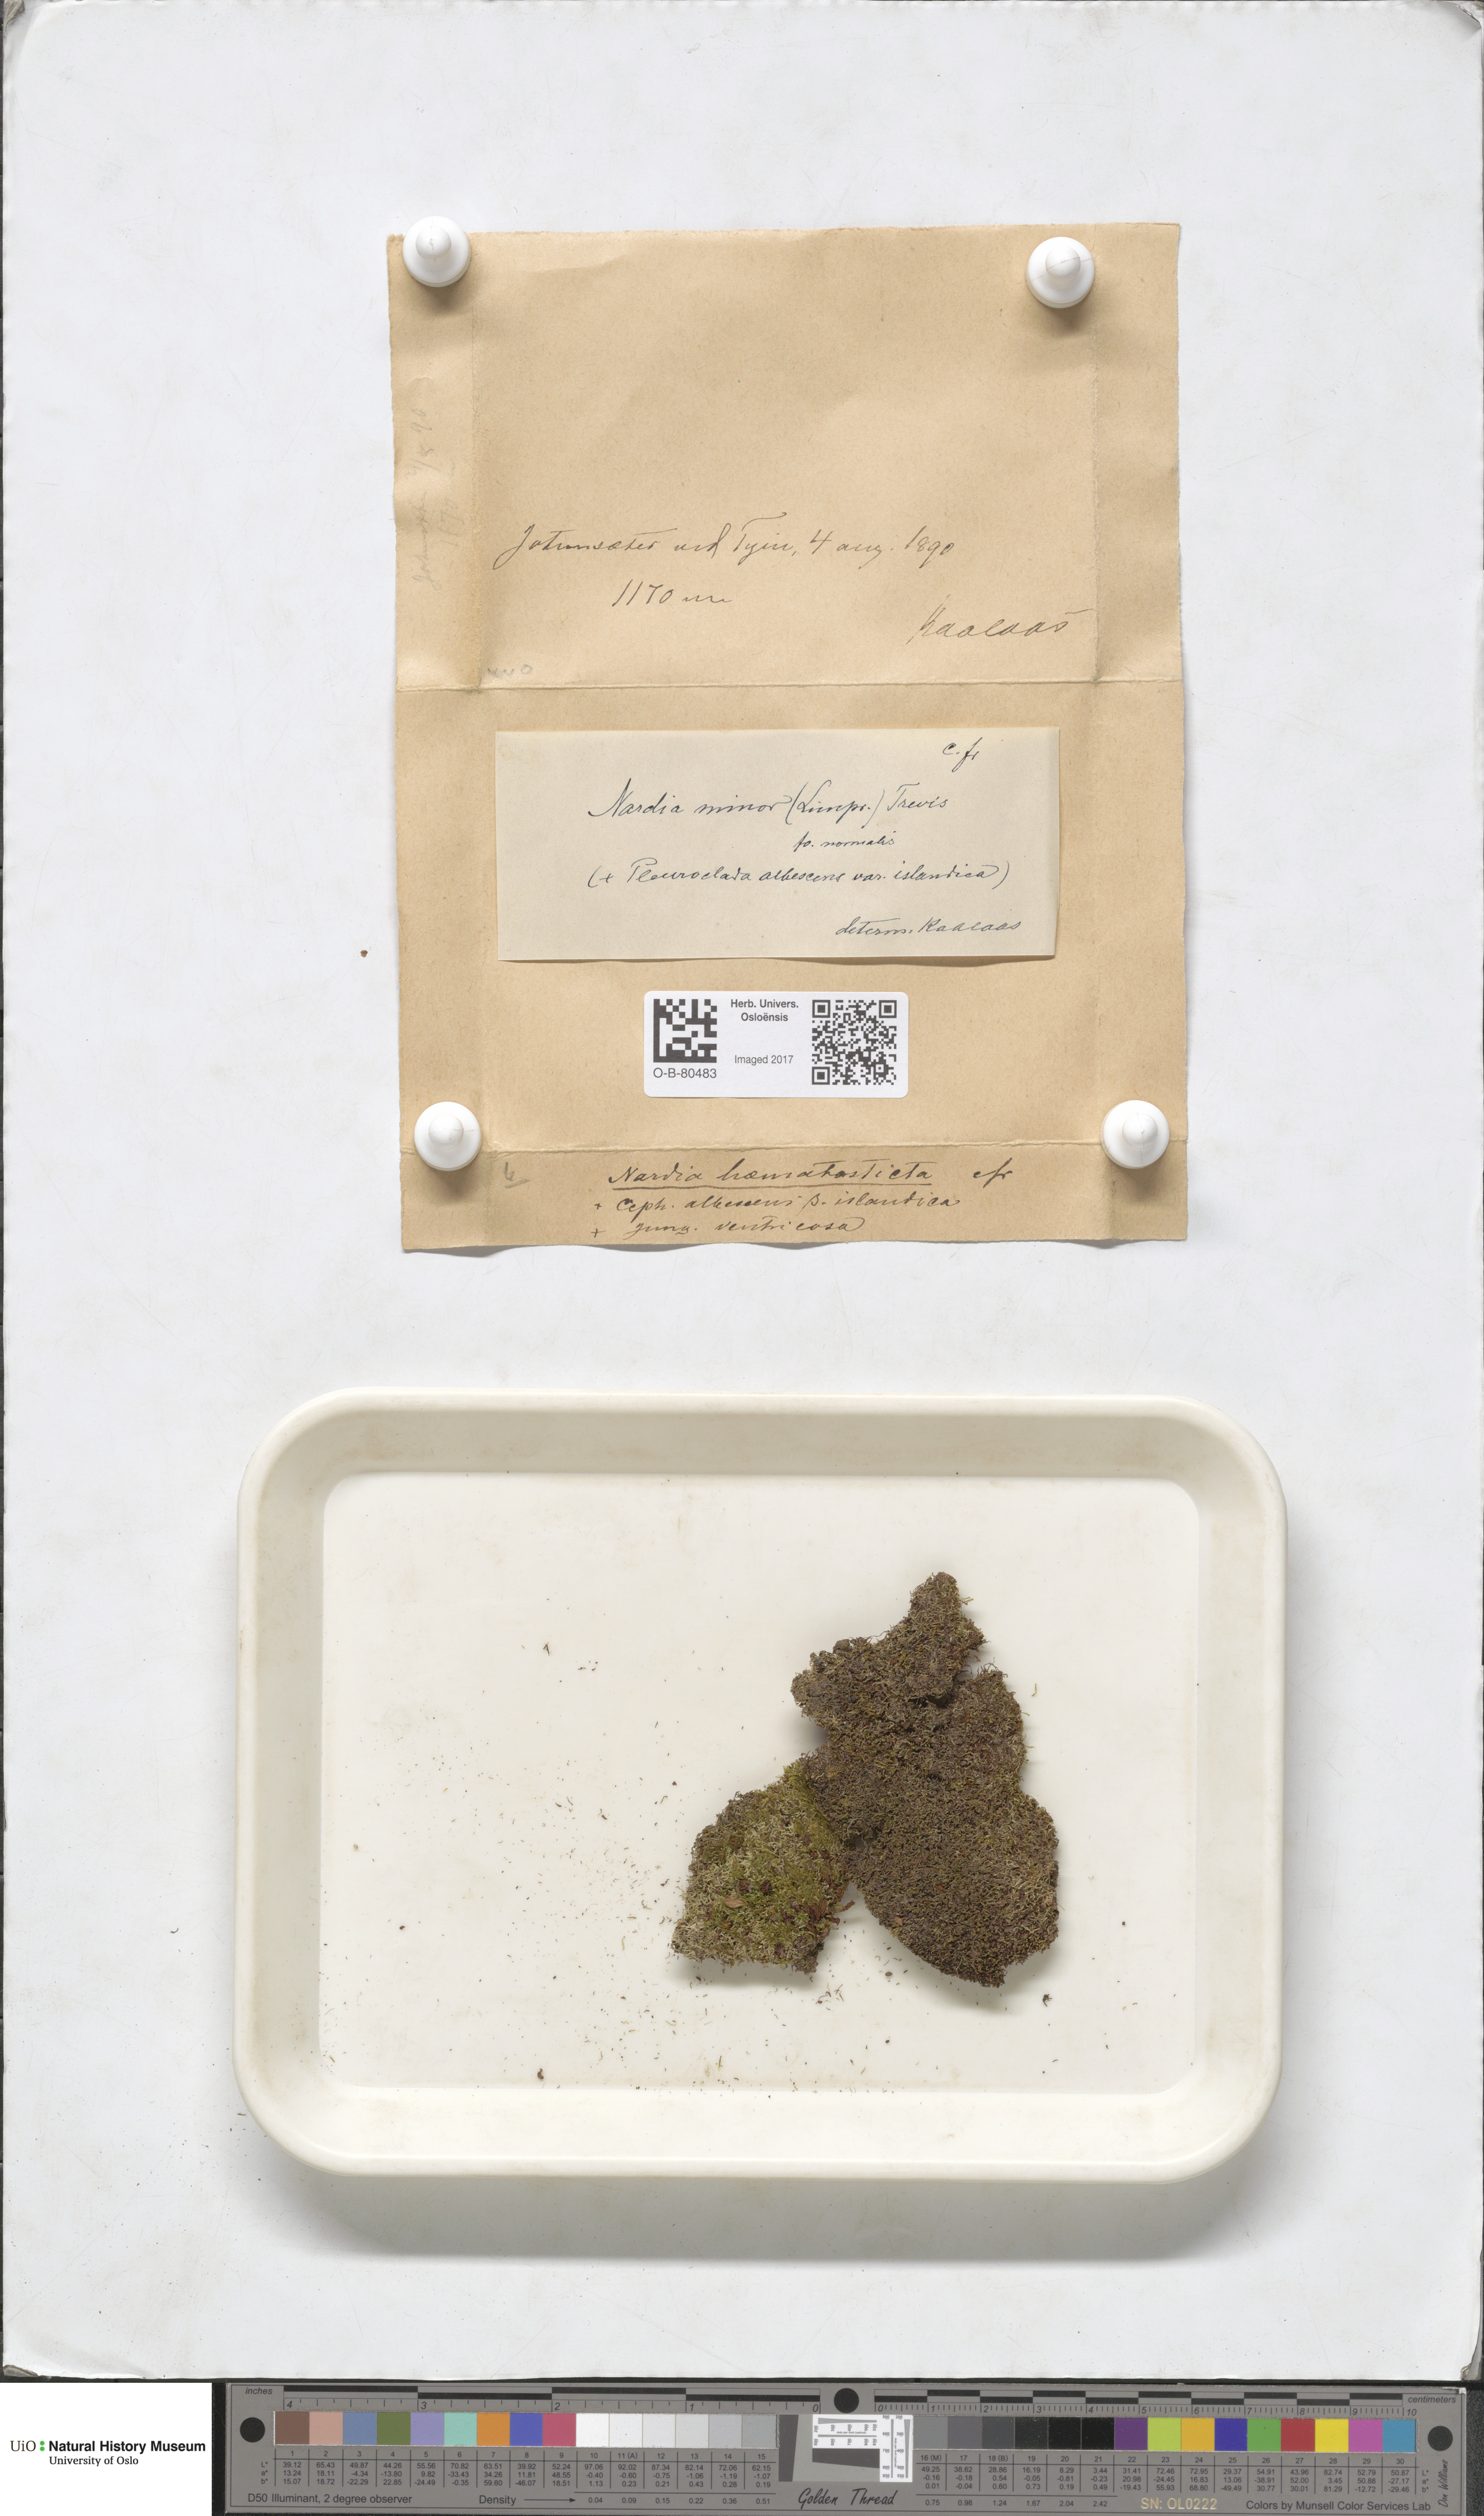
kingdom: Plantae
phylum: Marchantiophyta
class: Jungermanniopsida
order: Jungermanniales
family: Gymnomitriaceae
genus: Nardia
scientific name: Nardia geoscyphus
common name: Earth-cup flapwort
